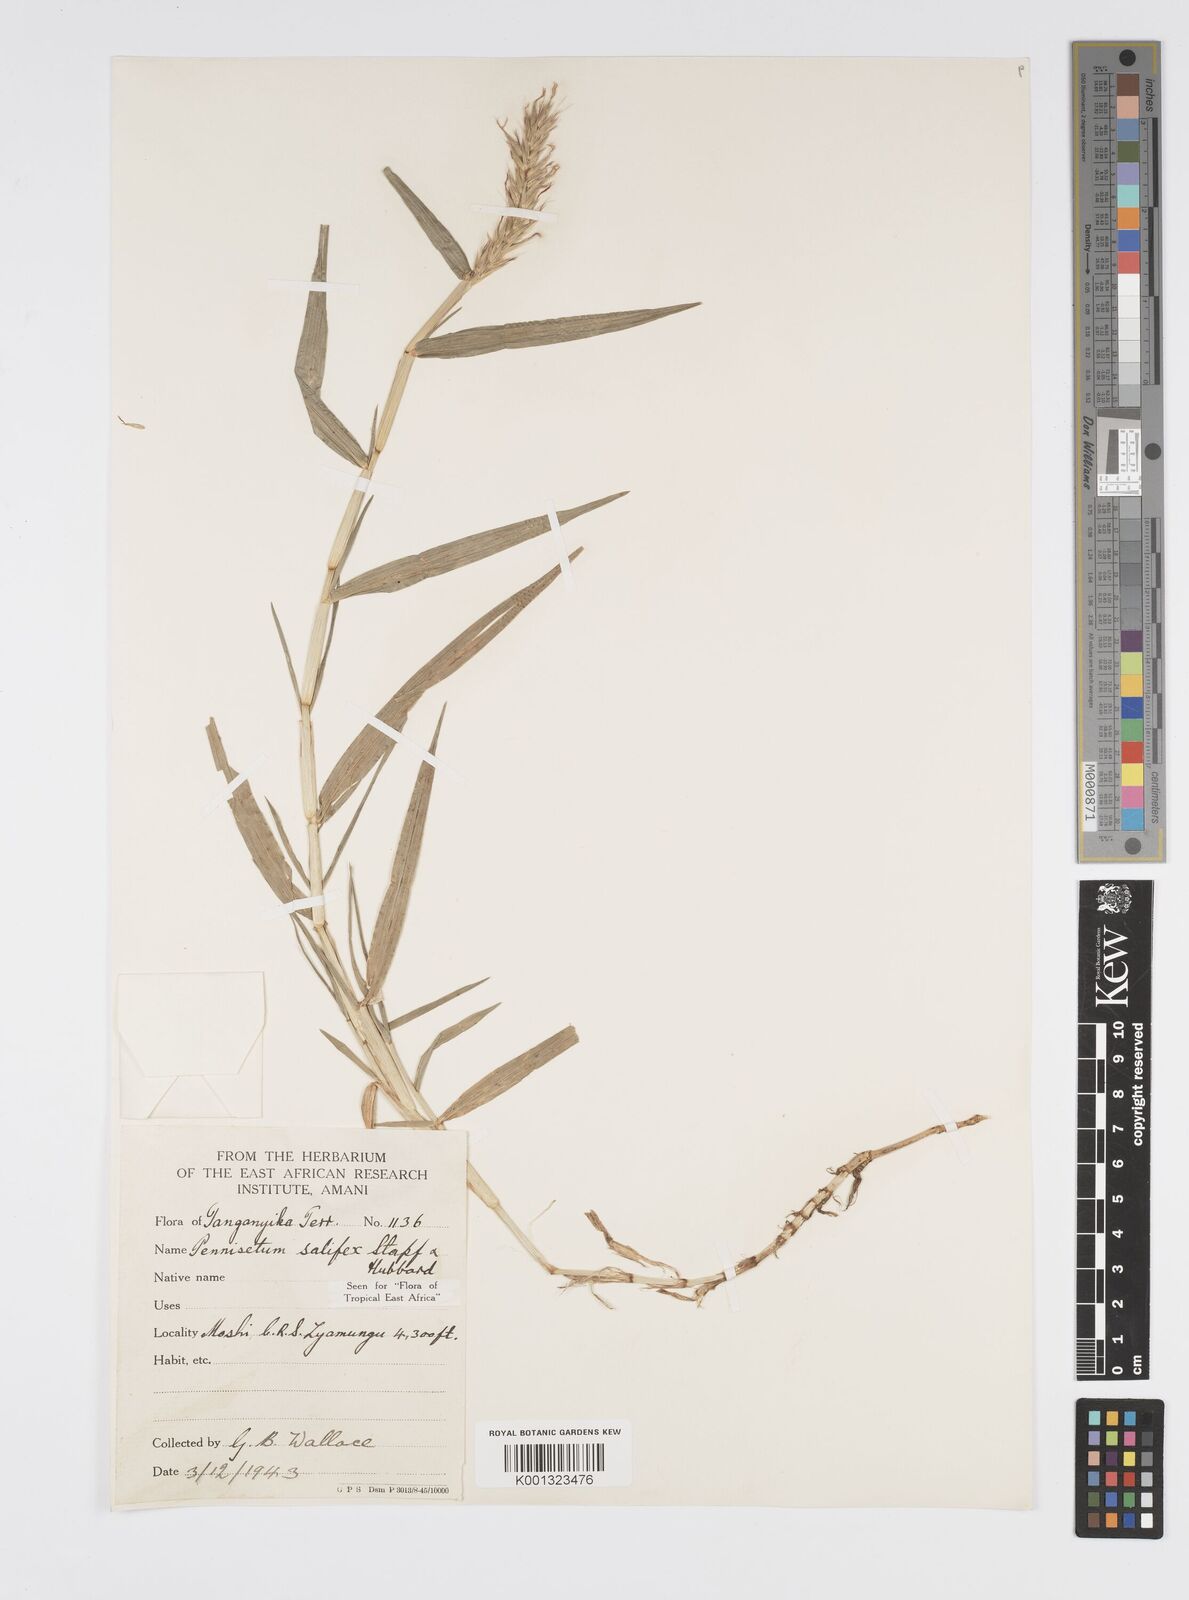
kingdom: Plantae
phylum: Tracheophyta
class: Liliopsida
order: Poales
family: Poaceae
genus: Cenchrus
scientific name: Cenchrus riparius
